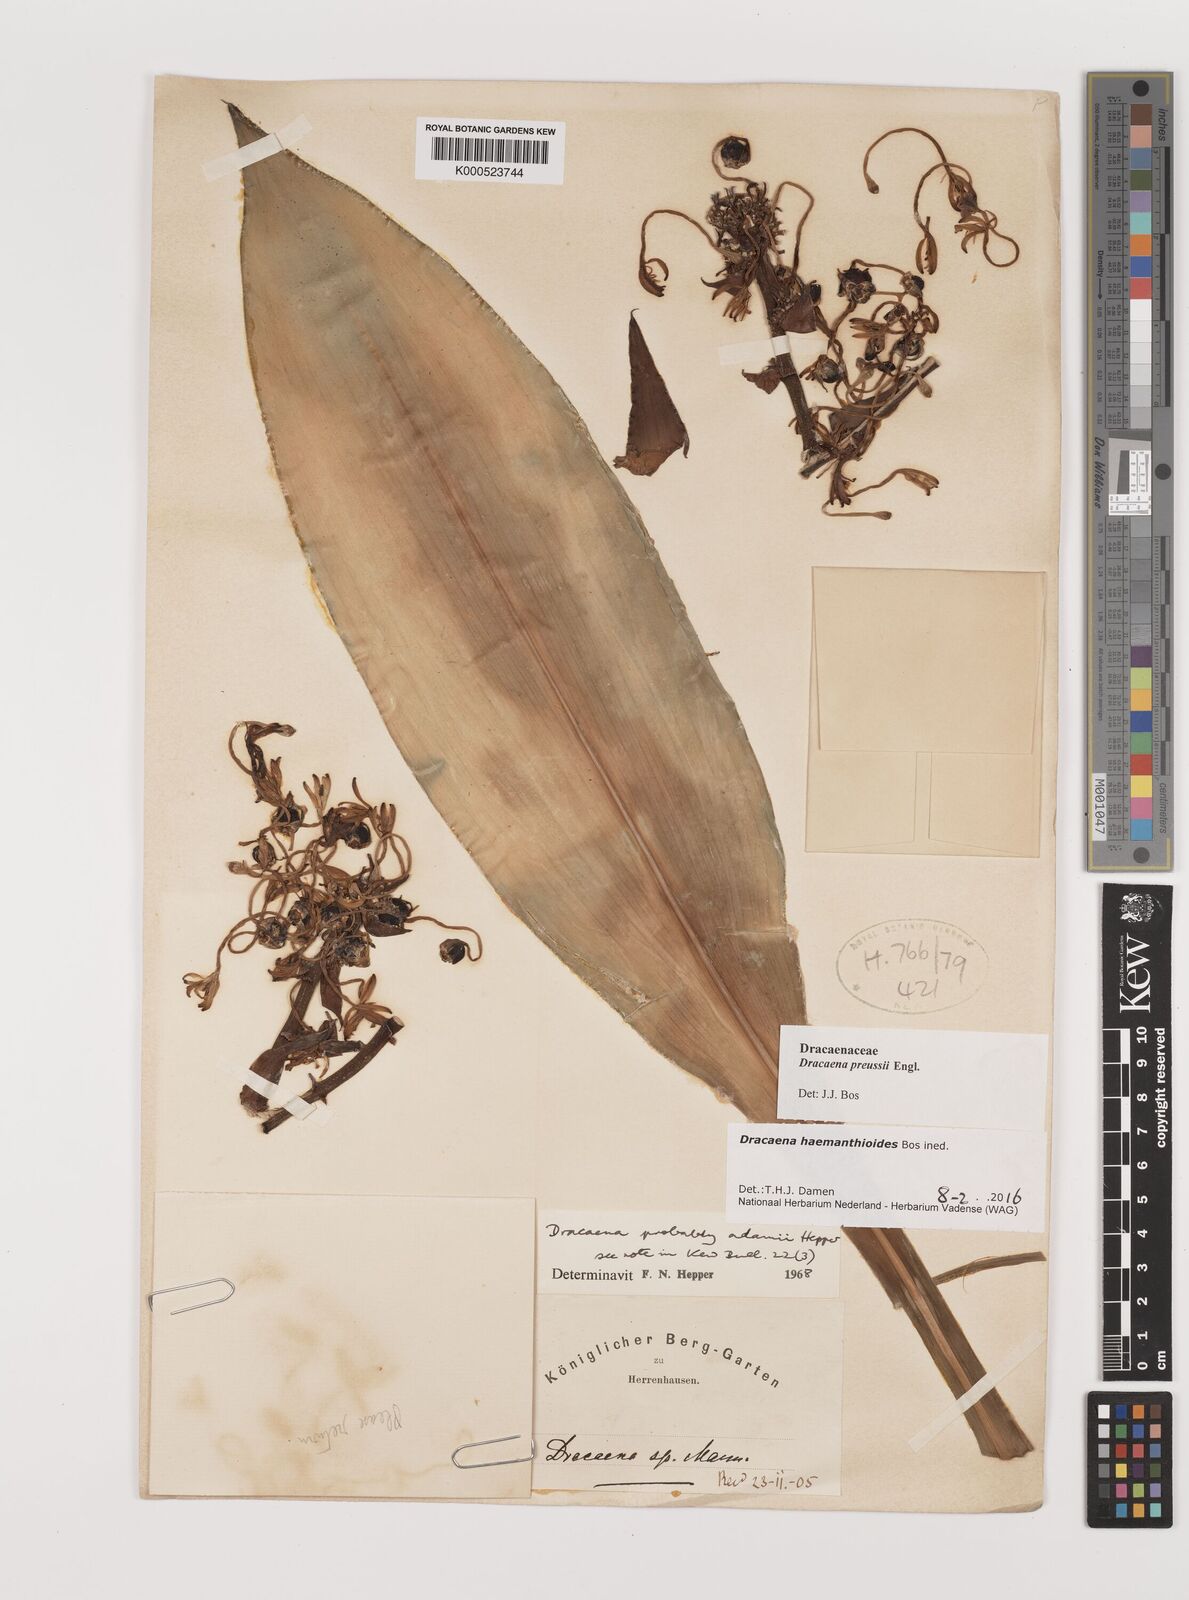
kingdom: Plantae
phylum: Tracheophyta
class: Liliopsida
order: Asparagales
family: Asparagaceae
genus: Dracaena
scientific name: Dracaena haemanthoides
